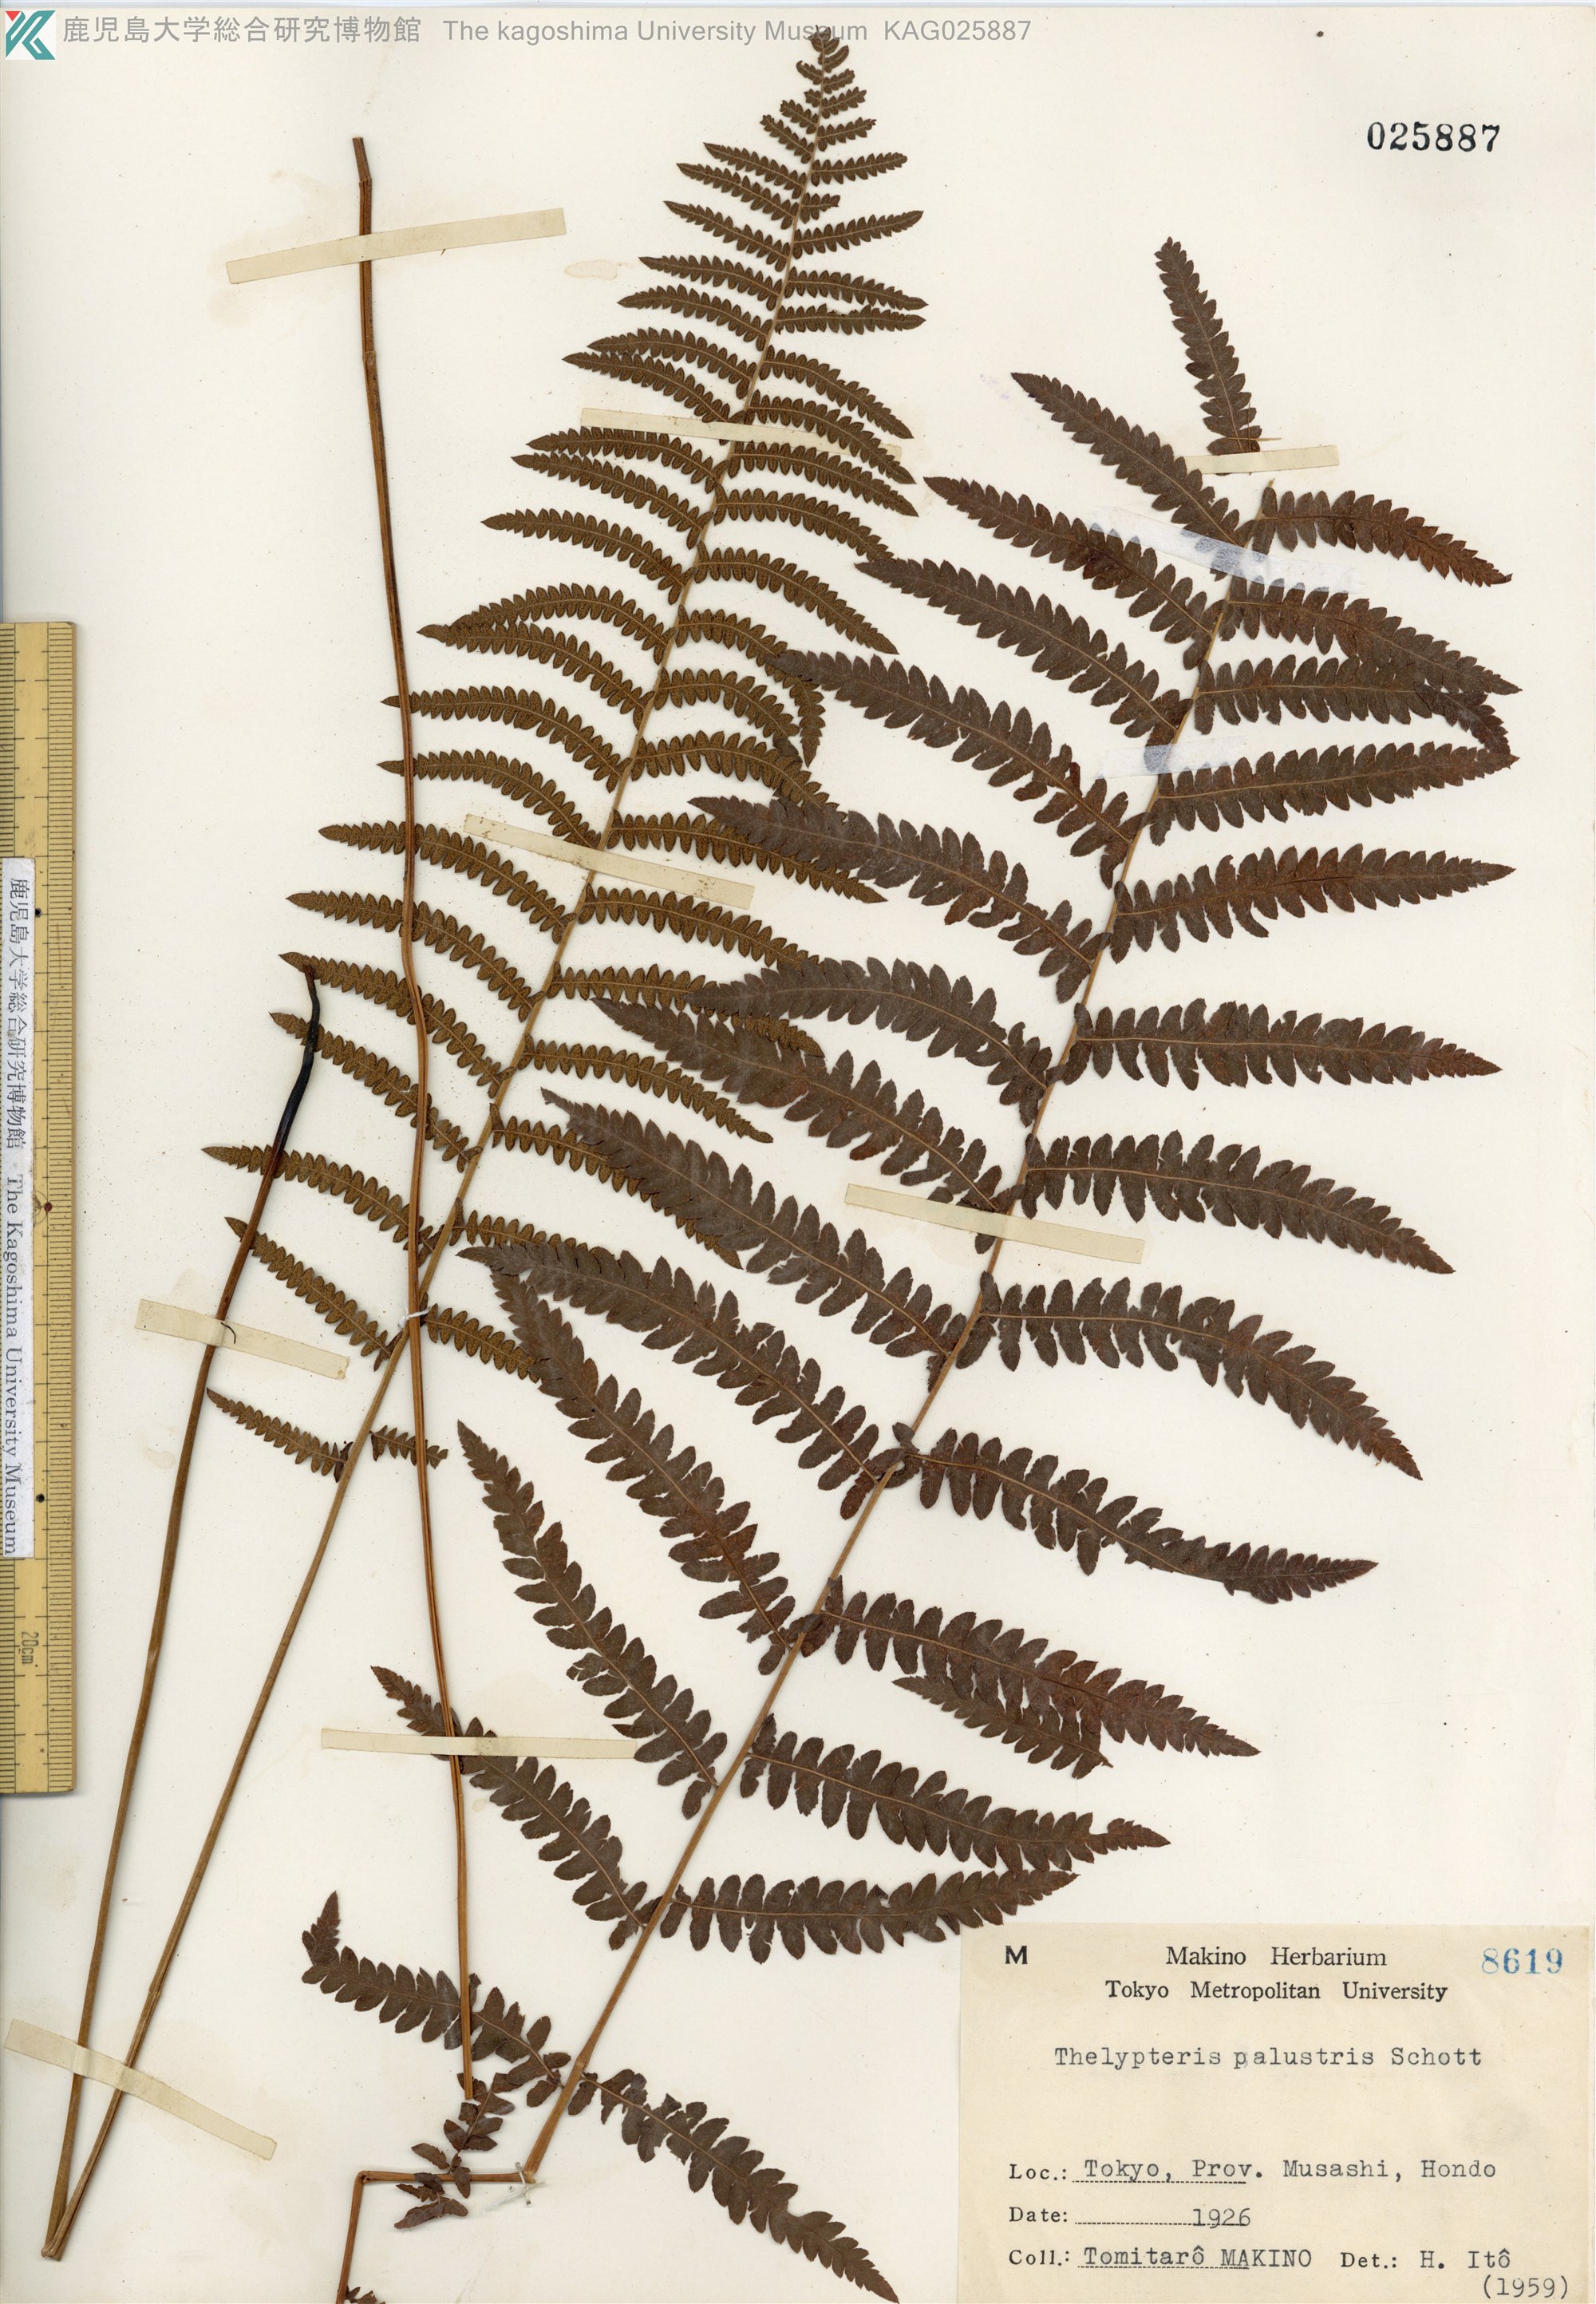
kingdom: Plantae
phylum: Tracheophyta
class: Polypodiopsida
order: Polypodiales
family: Thelypteridaceae
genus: Thelypteris
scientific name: Thelypteris palustris
